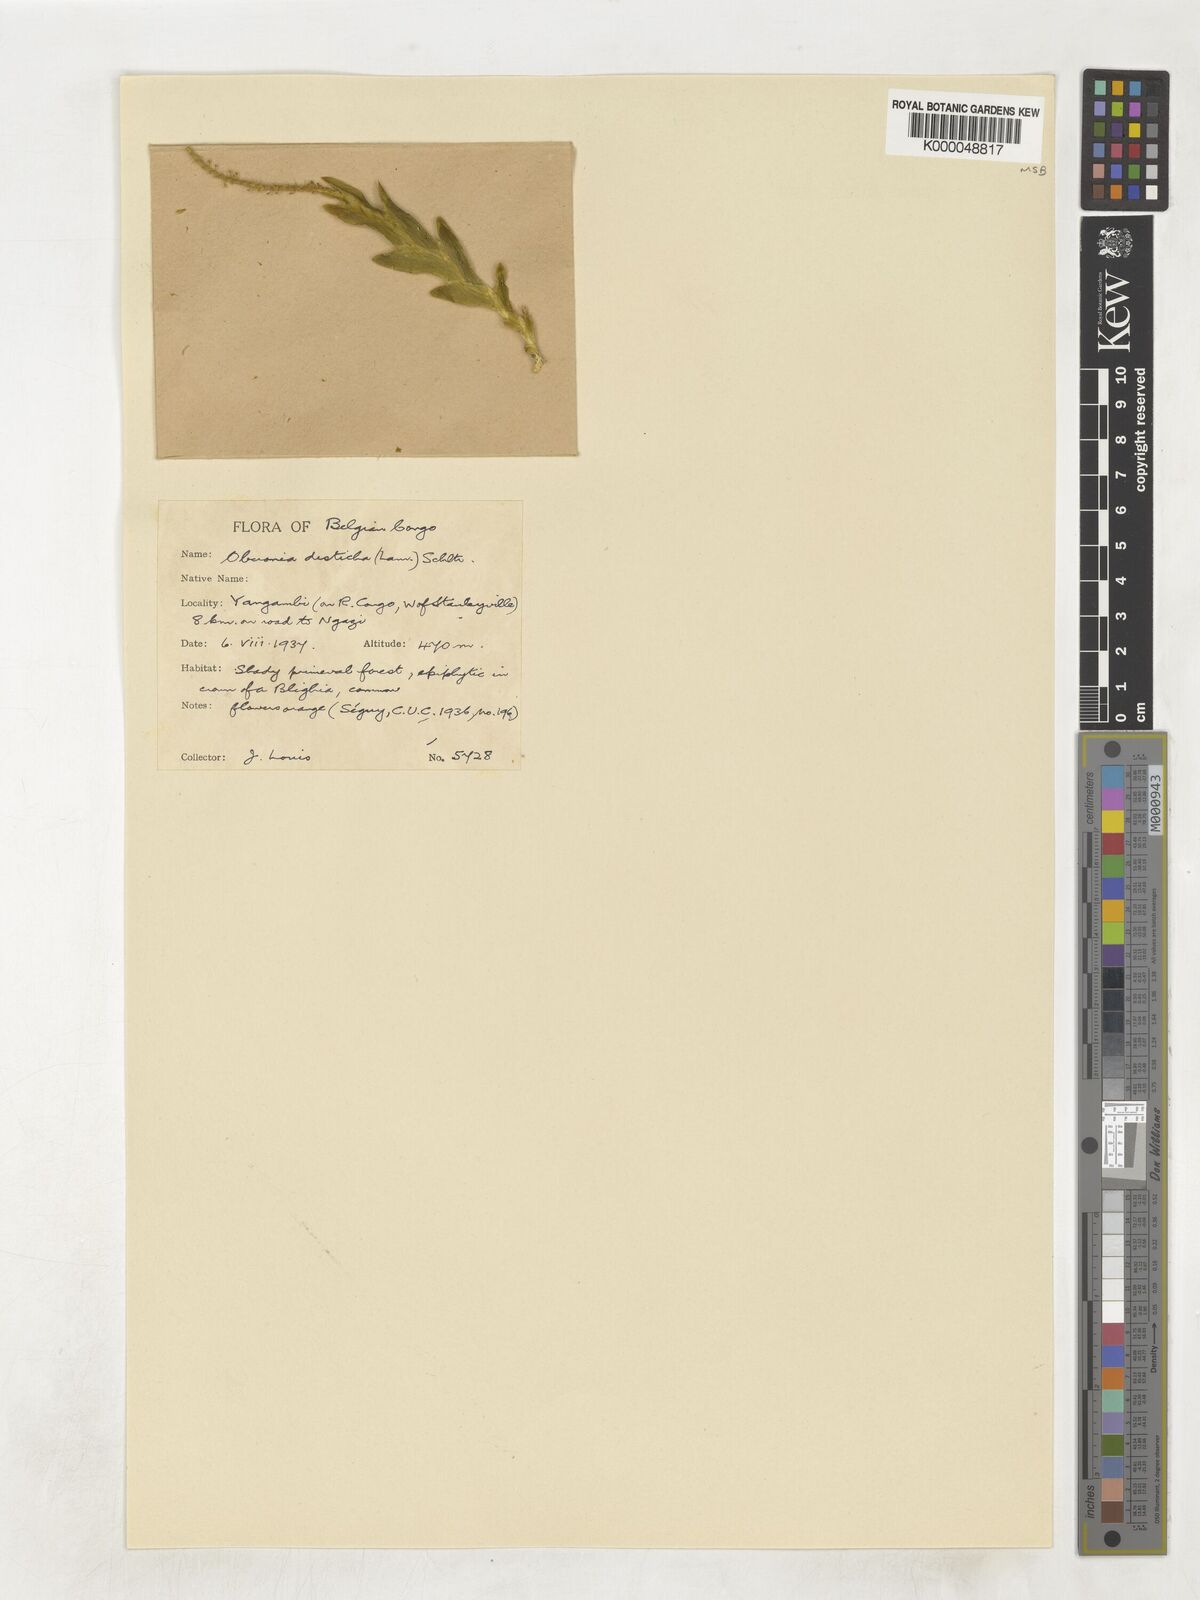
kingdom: Plantae
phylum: Tracheophyta
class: Liliopsida
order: Asparagales
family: Orchidaceae
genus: Oberonia
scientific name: Oberonia disticha
